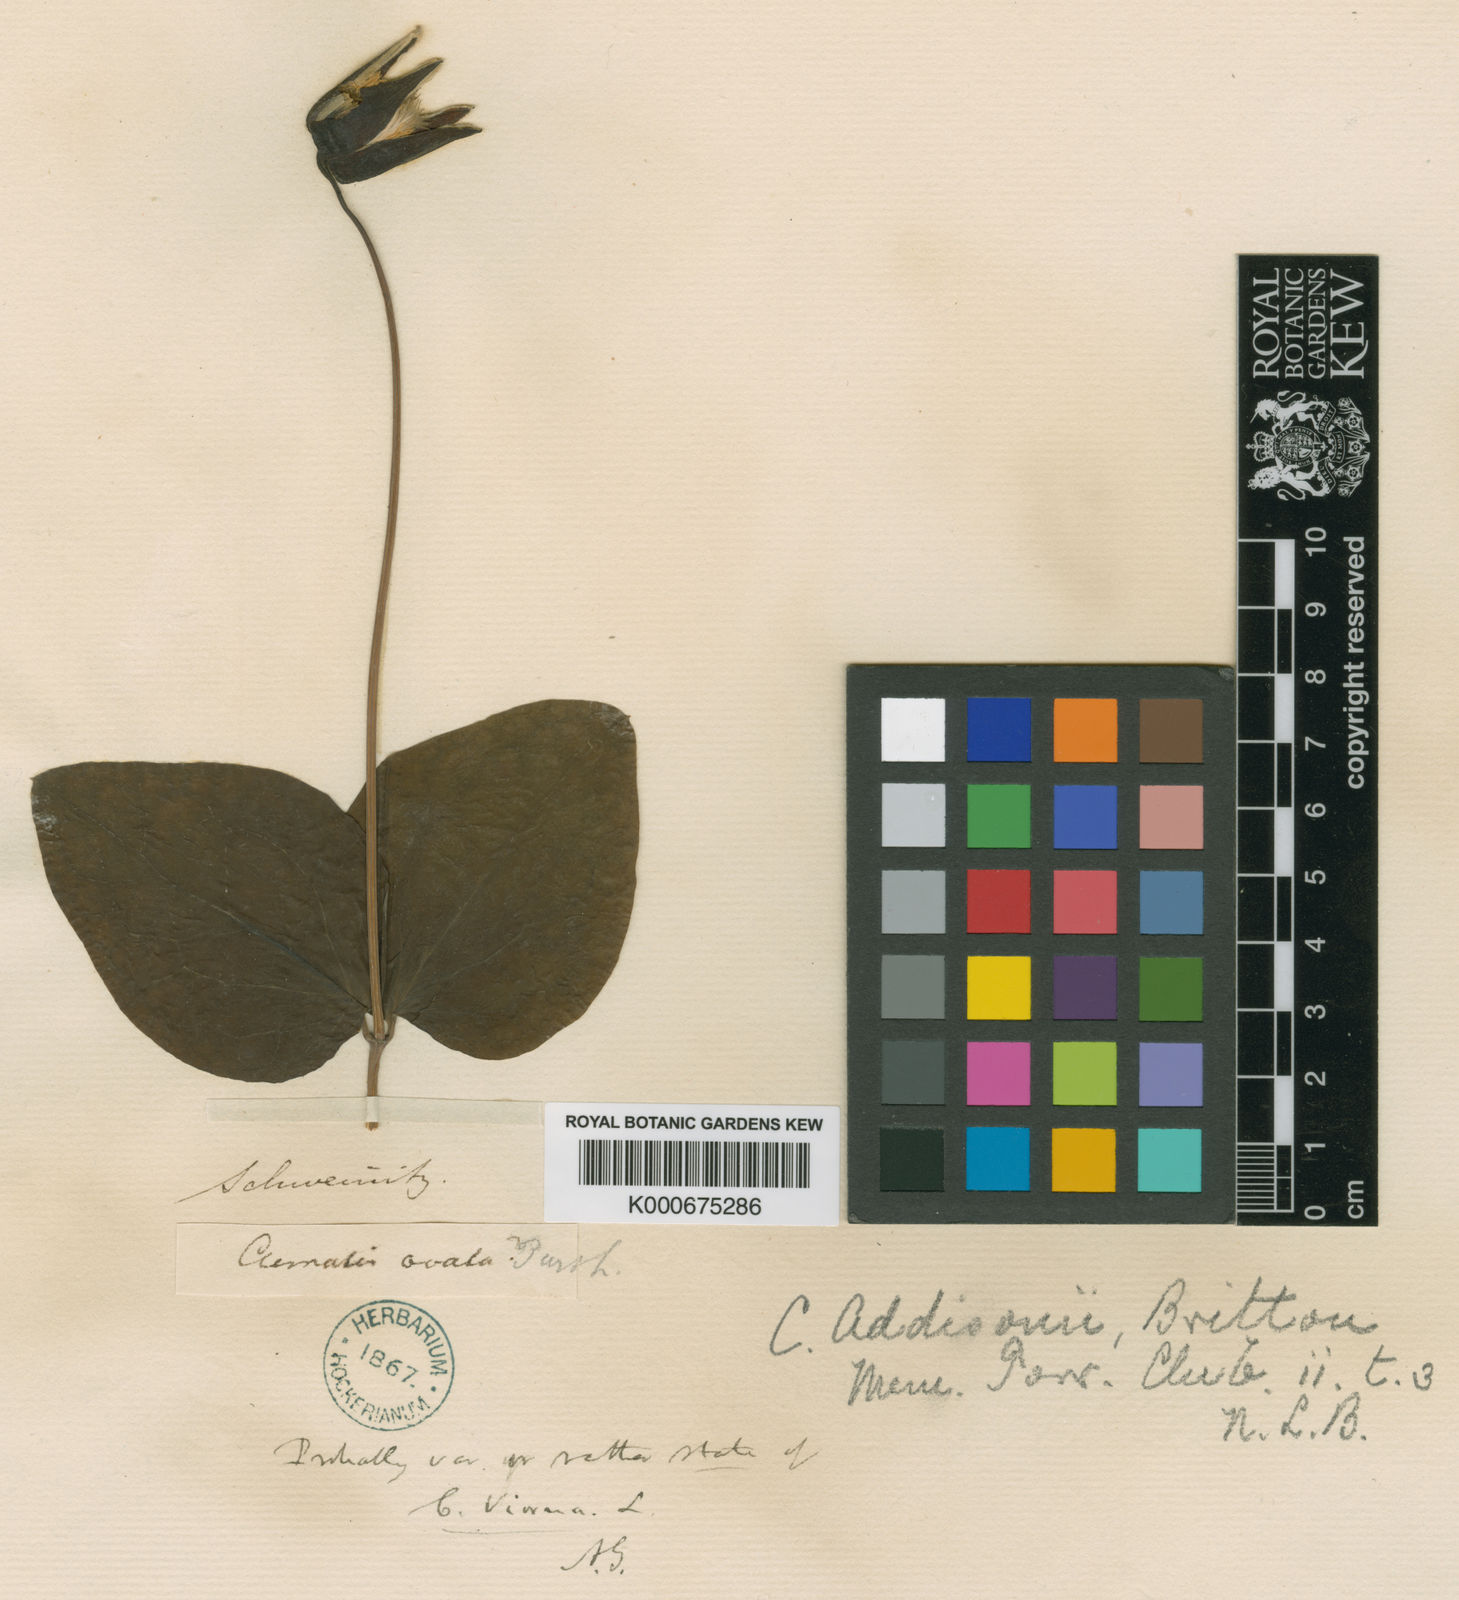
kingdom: Plantae
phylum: Tracheophyta
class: Magnoliopsida
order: Ranunculales
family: Ranunculaceae
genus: Clematis
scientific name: Clematis
